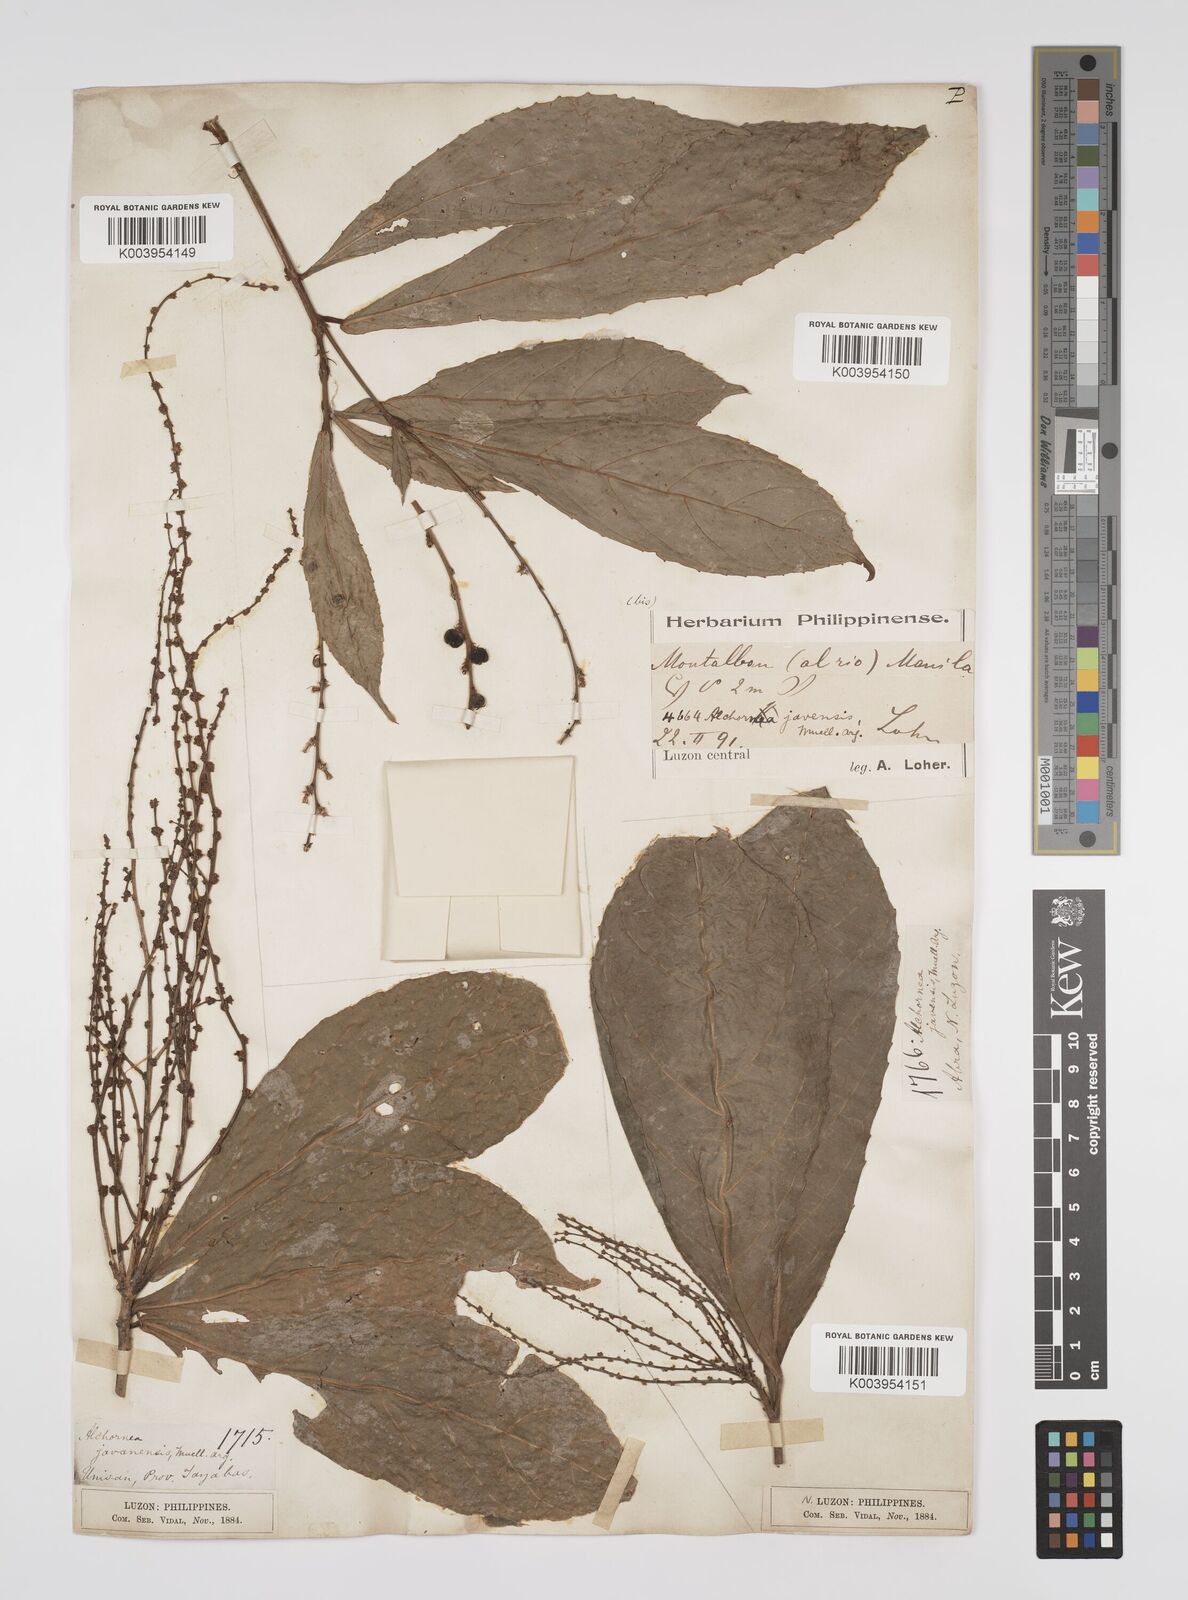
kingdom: Plantae
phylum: Tracheophyta
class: Magnoliopsida
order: Malpighiales
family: Euphorbiaceae
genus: Alchornea
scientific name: Alchornea rugosa
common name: Alchorntree
